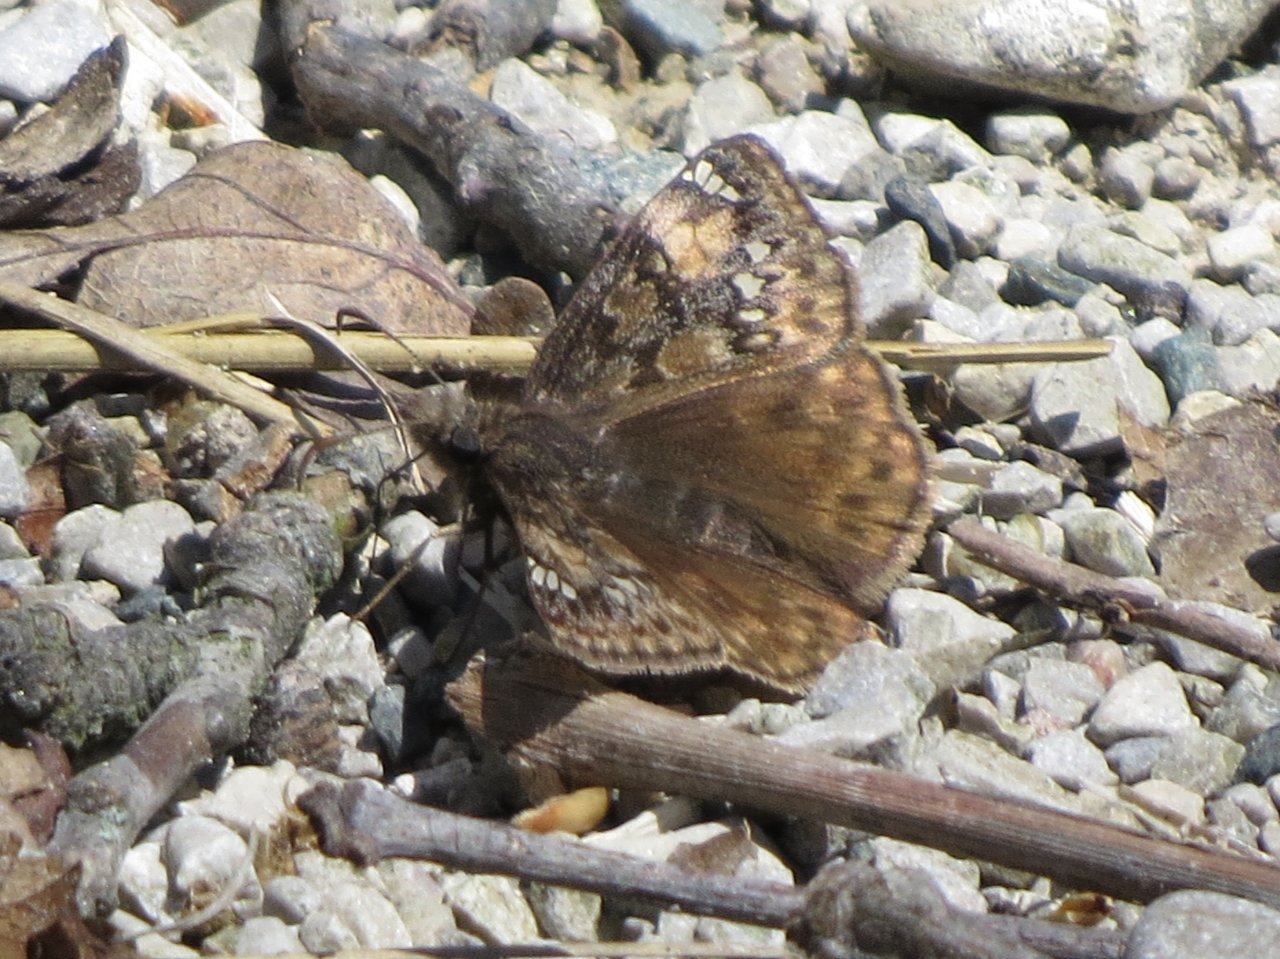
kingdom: Animalia
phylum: Arthropoda
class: Insecta
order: Lepidoptera
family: Hesperiidae
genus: Gesta
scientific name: Gesta
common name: Juvenal's Duskywing
